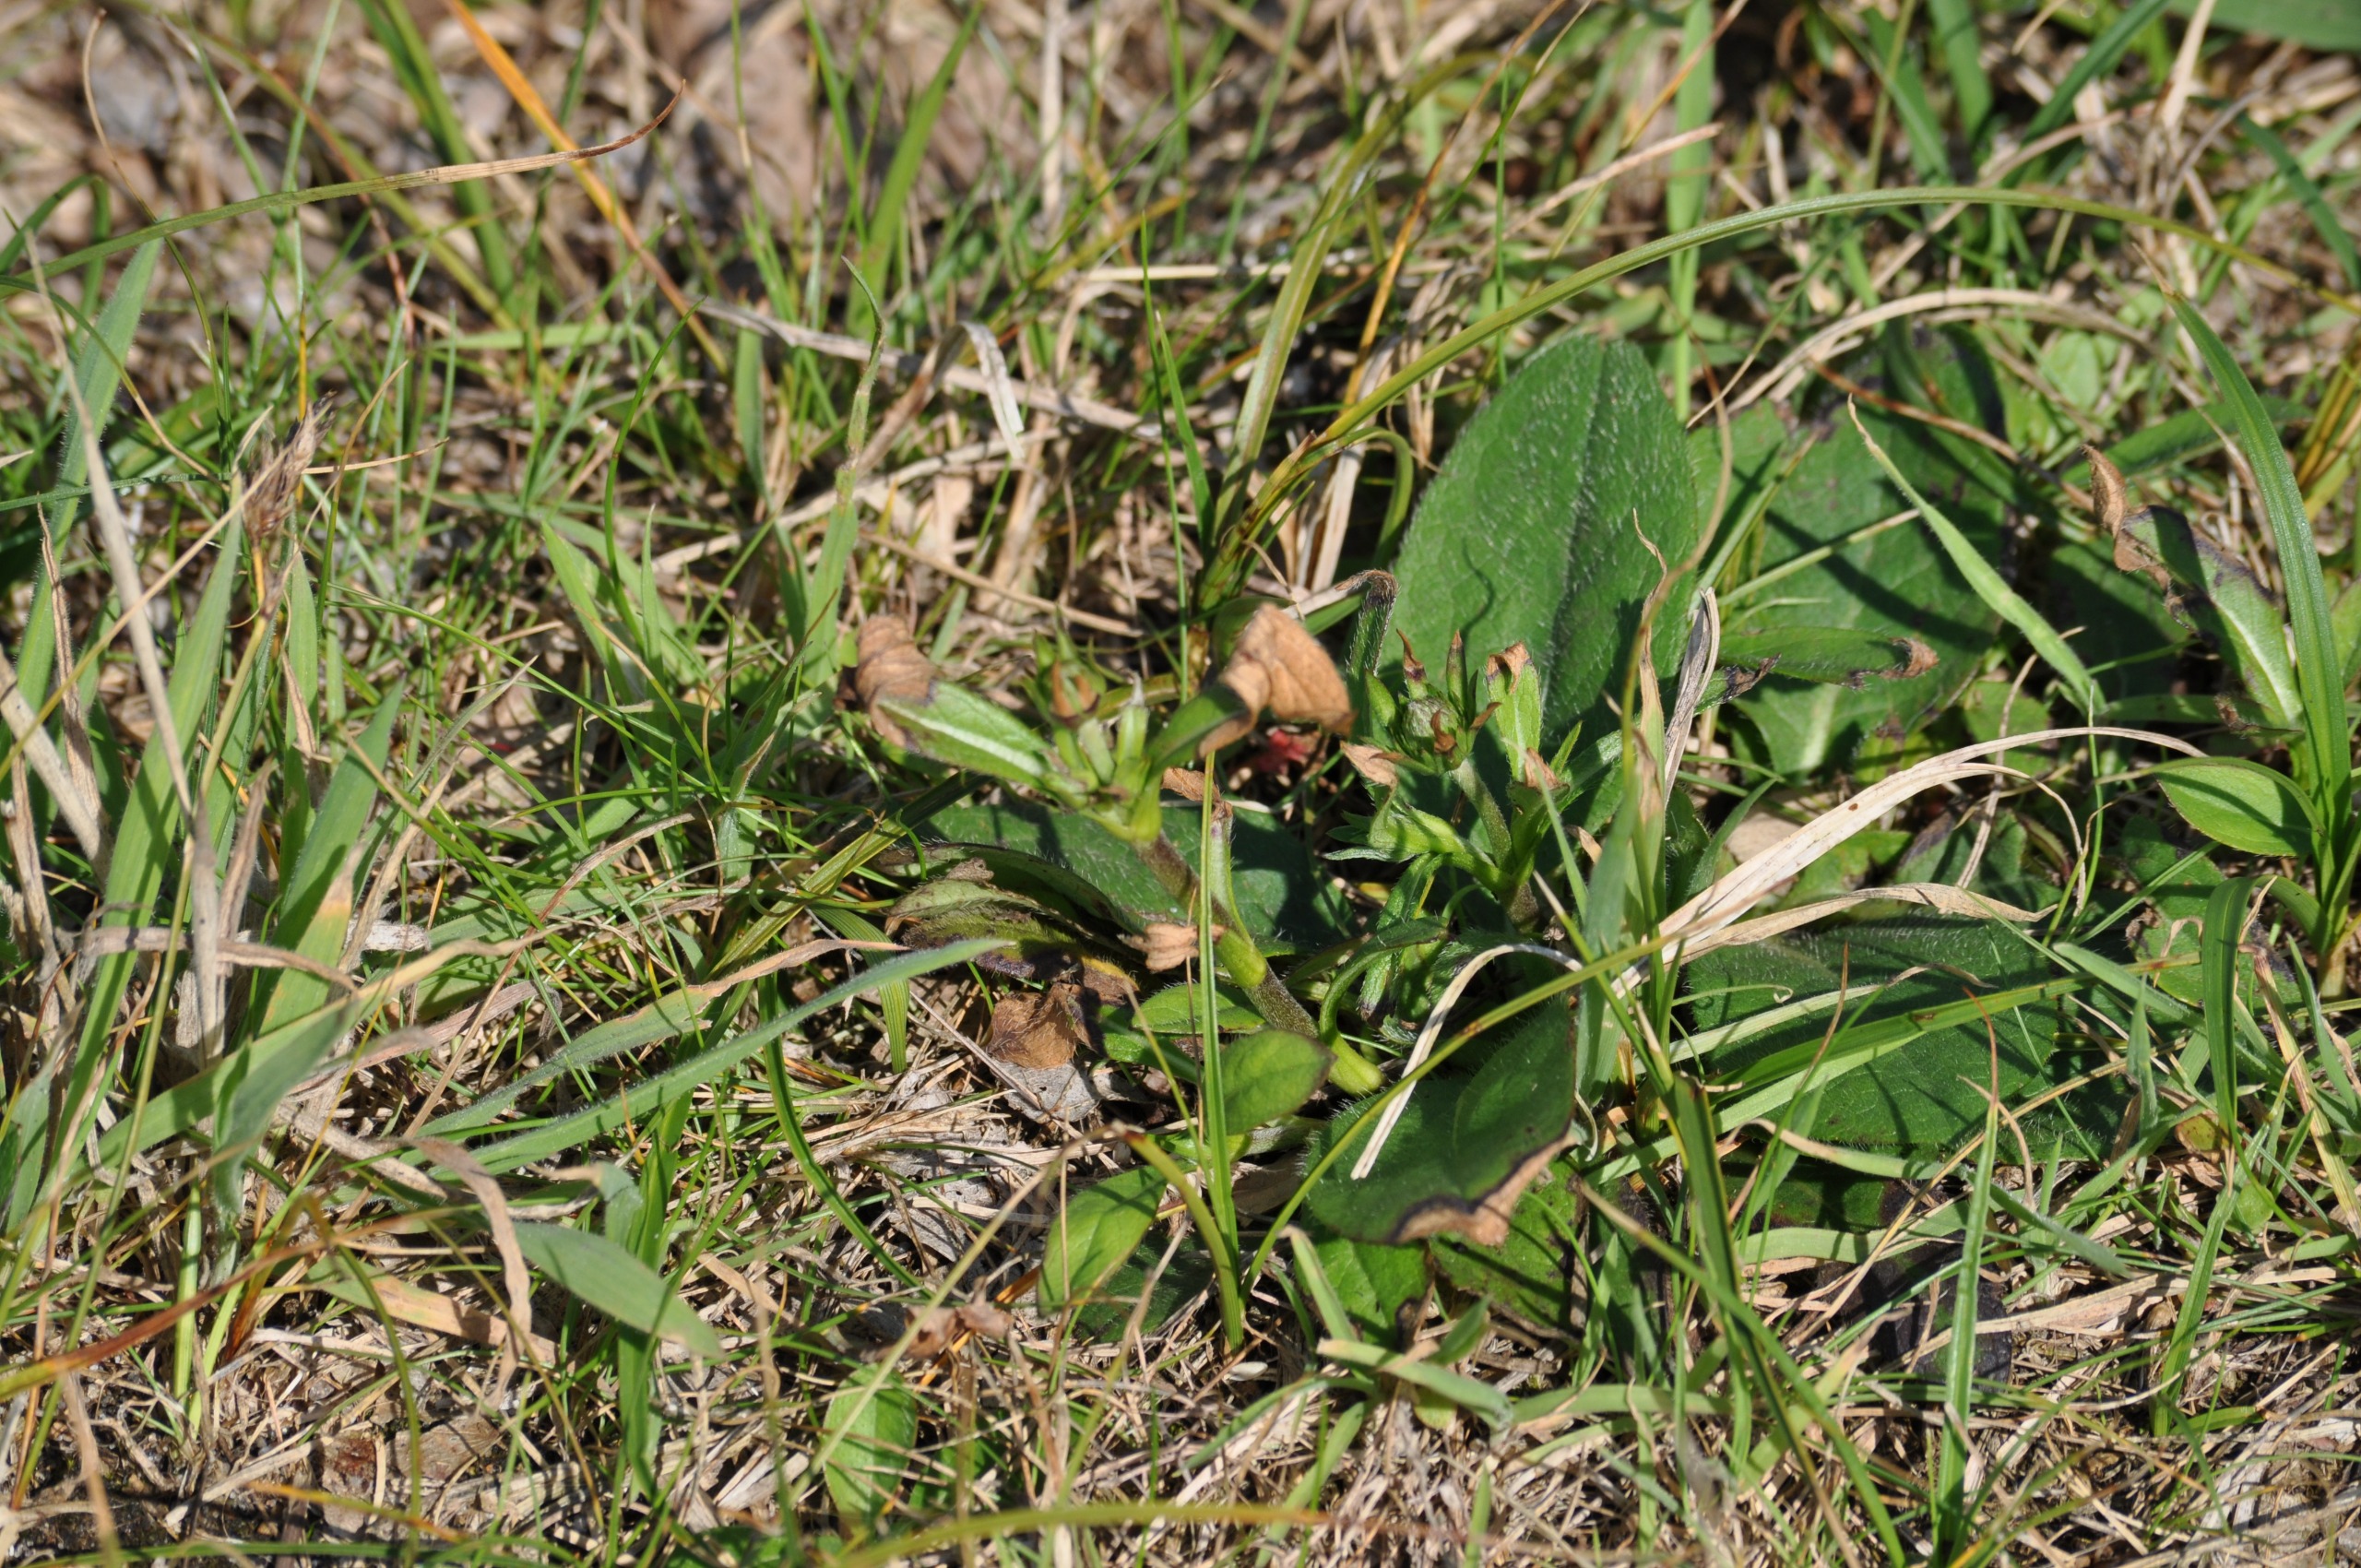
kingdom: Plantae
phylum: Tracheophyta
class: Magnoliopsida
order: Dipsacales
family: Caprifoliaceae
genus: Succisa
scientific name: Succisa pratensis
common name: Djævelsbid
